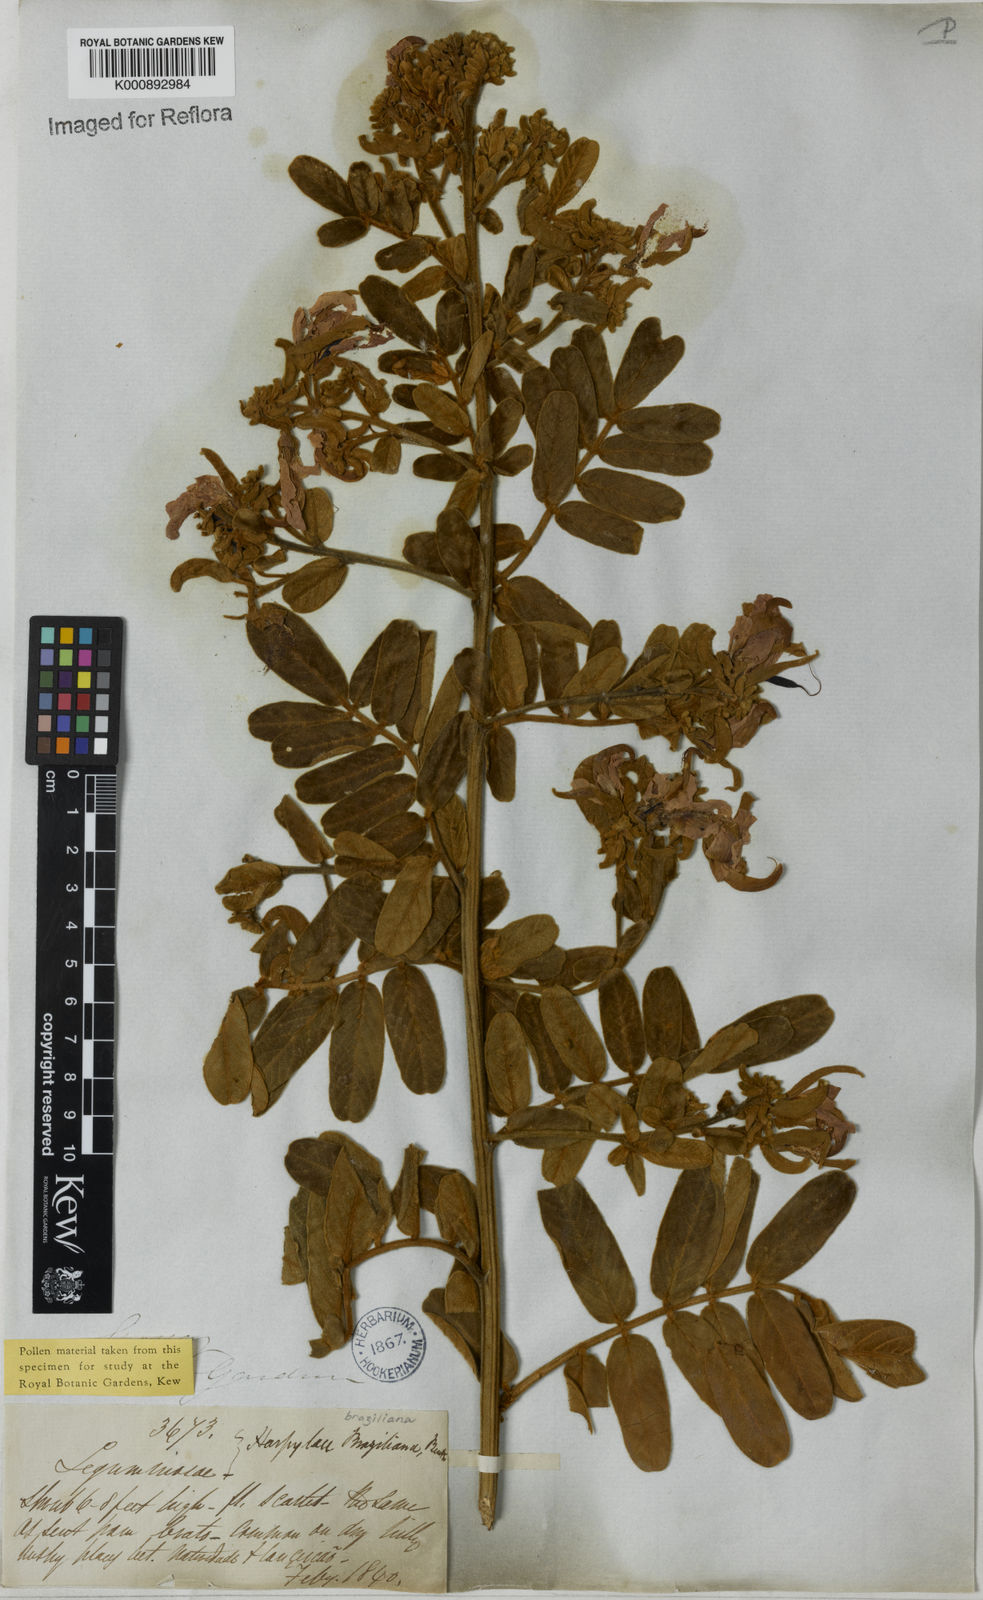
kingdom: Plantae
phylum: Tracheophyta
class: Magnoliopsida
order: Fabales
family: Fabaceae
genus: Harpalyce
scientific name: Harpalyce brasiliana
